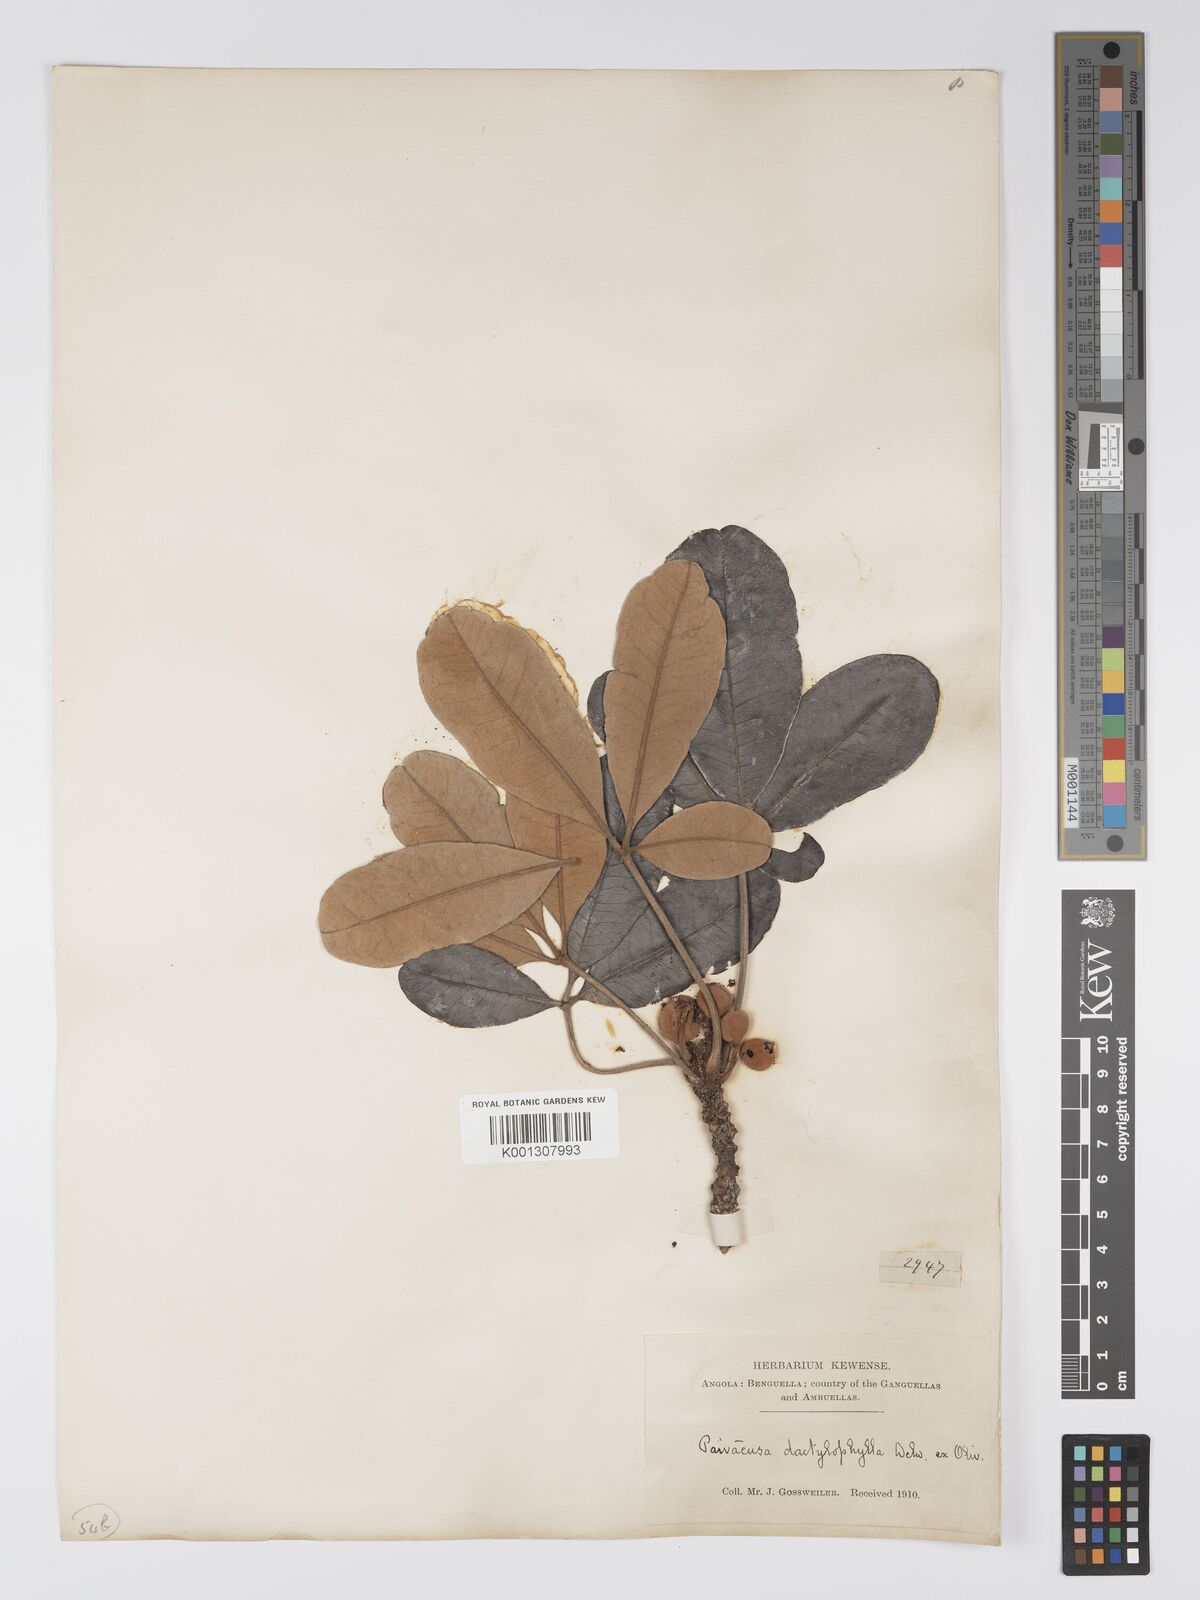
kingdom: Plantae
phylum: Tracheophyta
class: Magnoliopsida
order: Malpighiales
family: Picrodendraceae
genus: Oldfieldia
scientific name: Oldfieldia dactylophylla
